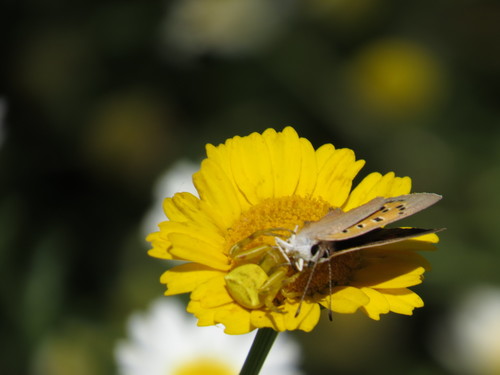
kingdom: Animalia
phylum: Arthropoda
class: Insecta
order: Lepidoptera
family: Lycaenidae
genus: Lycaena
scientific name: Lycaena phlaeas
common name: Small copper
